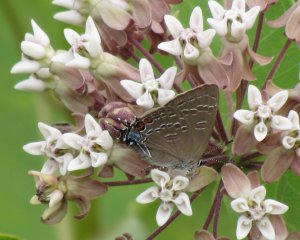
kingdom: Animalia
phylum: Arthropoda
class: Insecta
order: Lepidoptera
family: Lycaenidae
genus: Satyrium
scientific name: Satyrium calanus
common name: Banded Hairstreak
